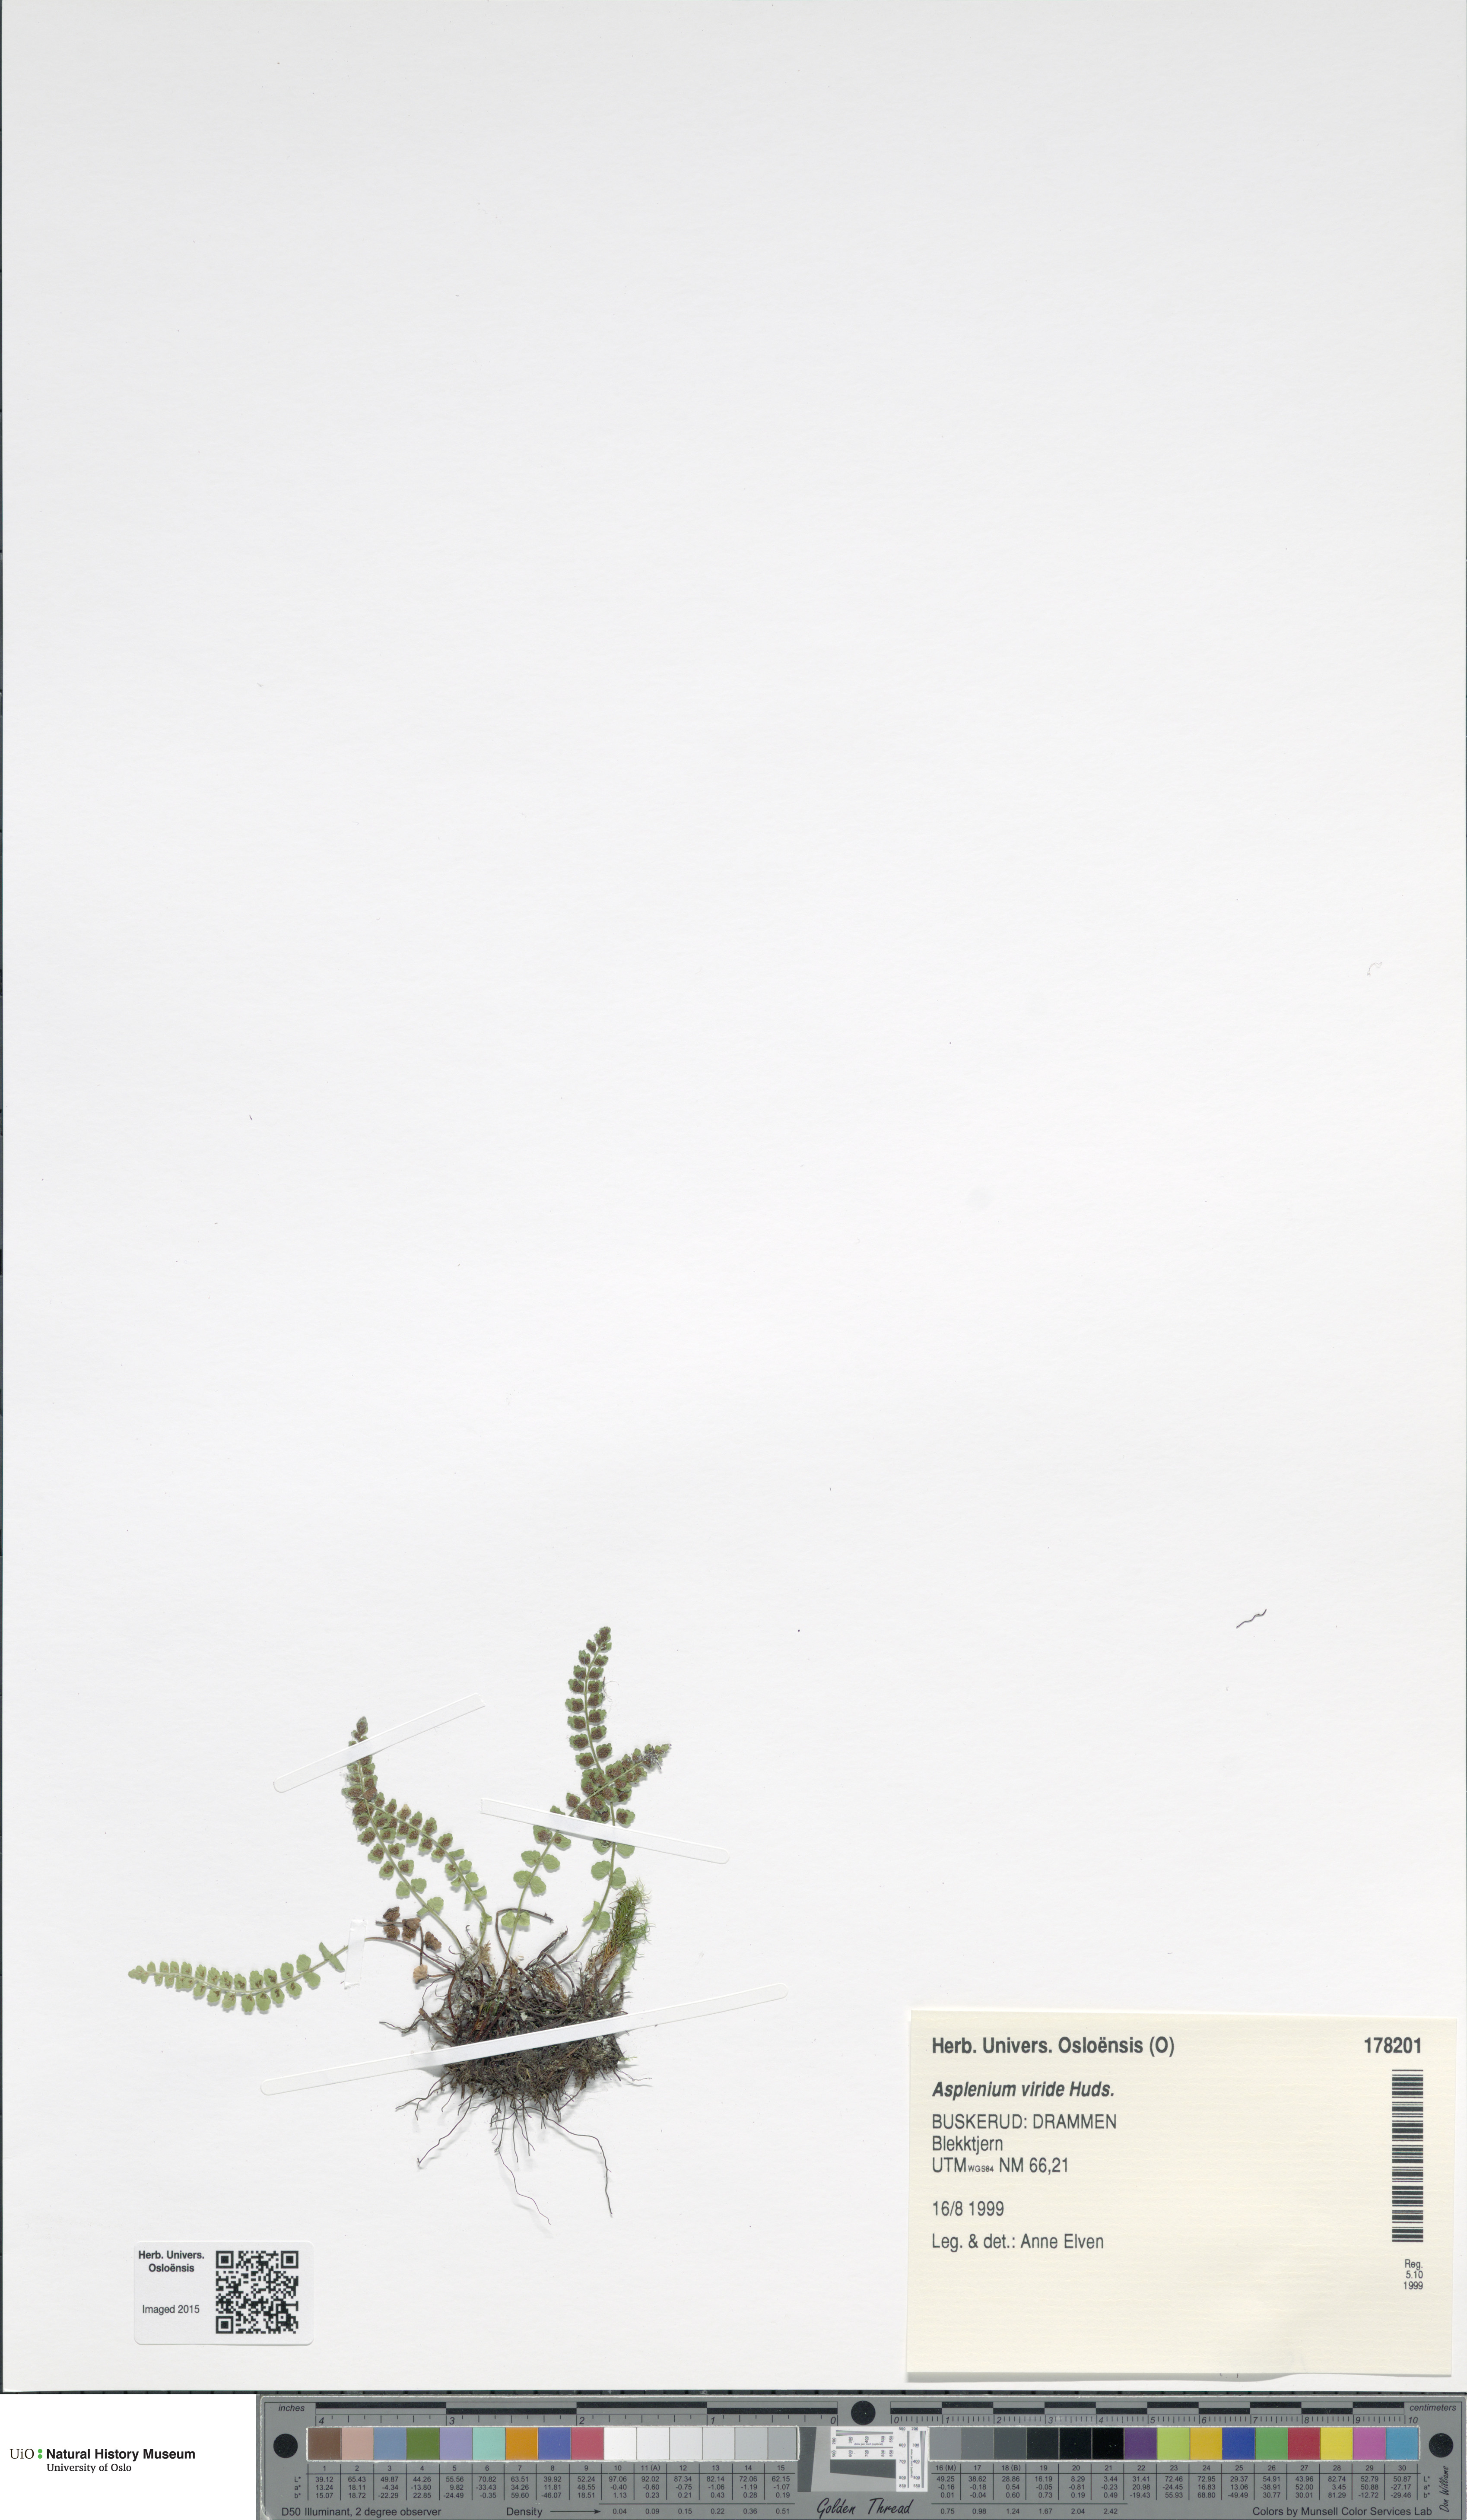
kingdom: Plantae
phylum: Tracheophyta
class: Polypodiopsida
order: Polypodiales
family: Aspleniaceae
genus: Asplenium
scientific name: Asplenium viride
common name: Green spleenwort
